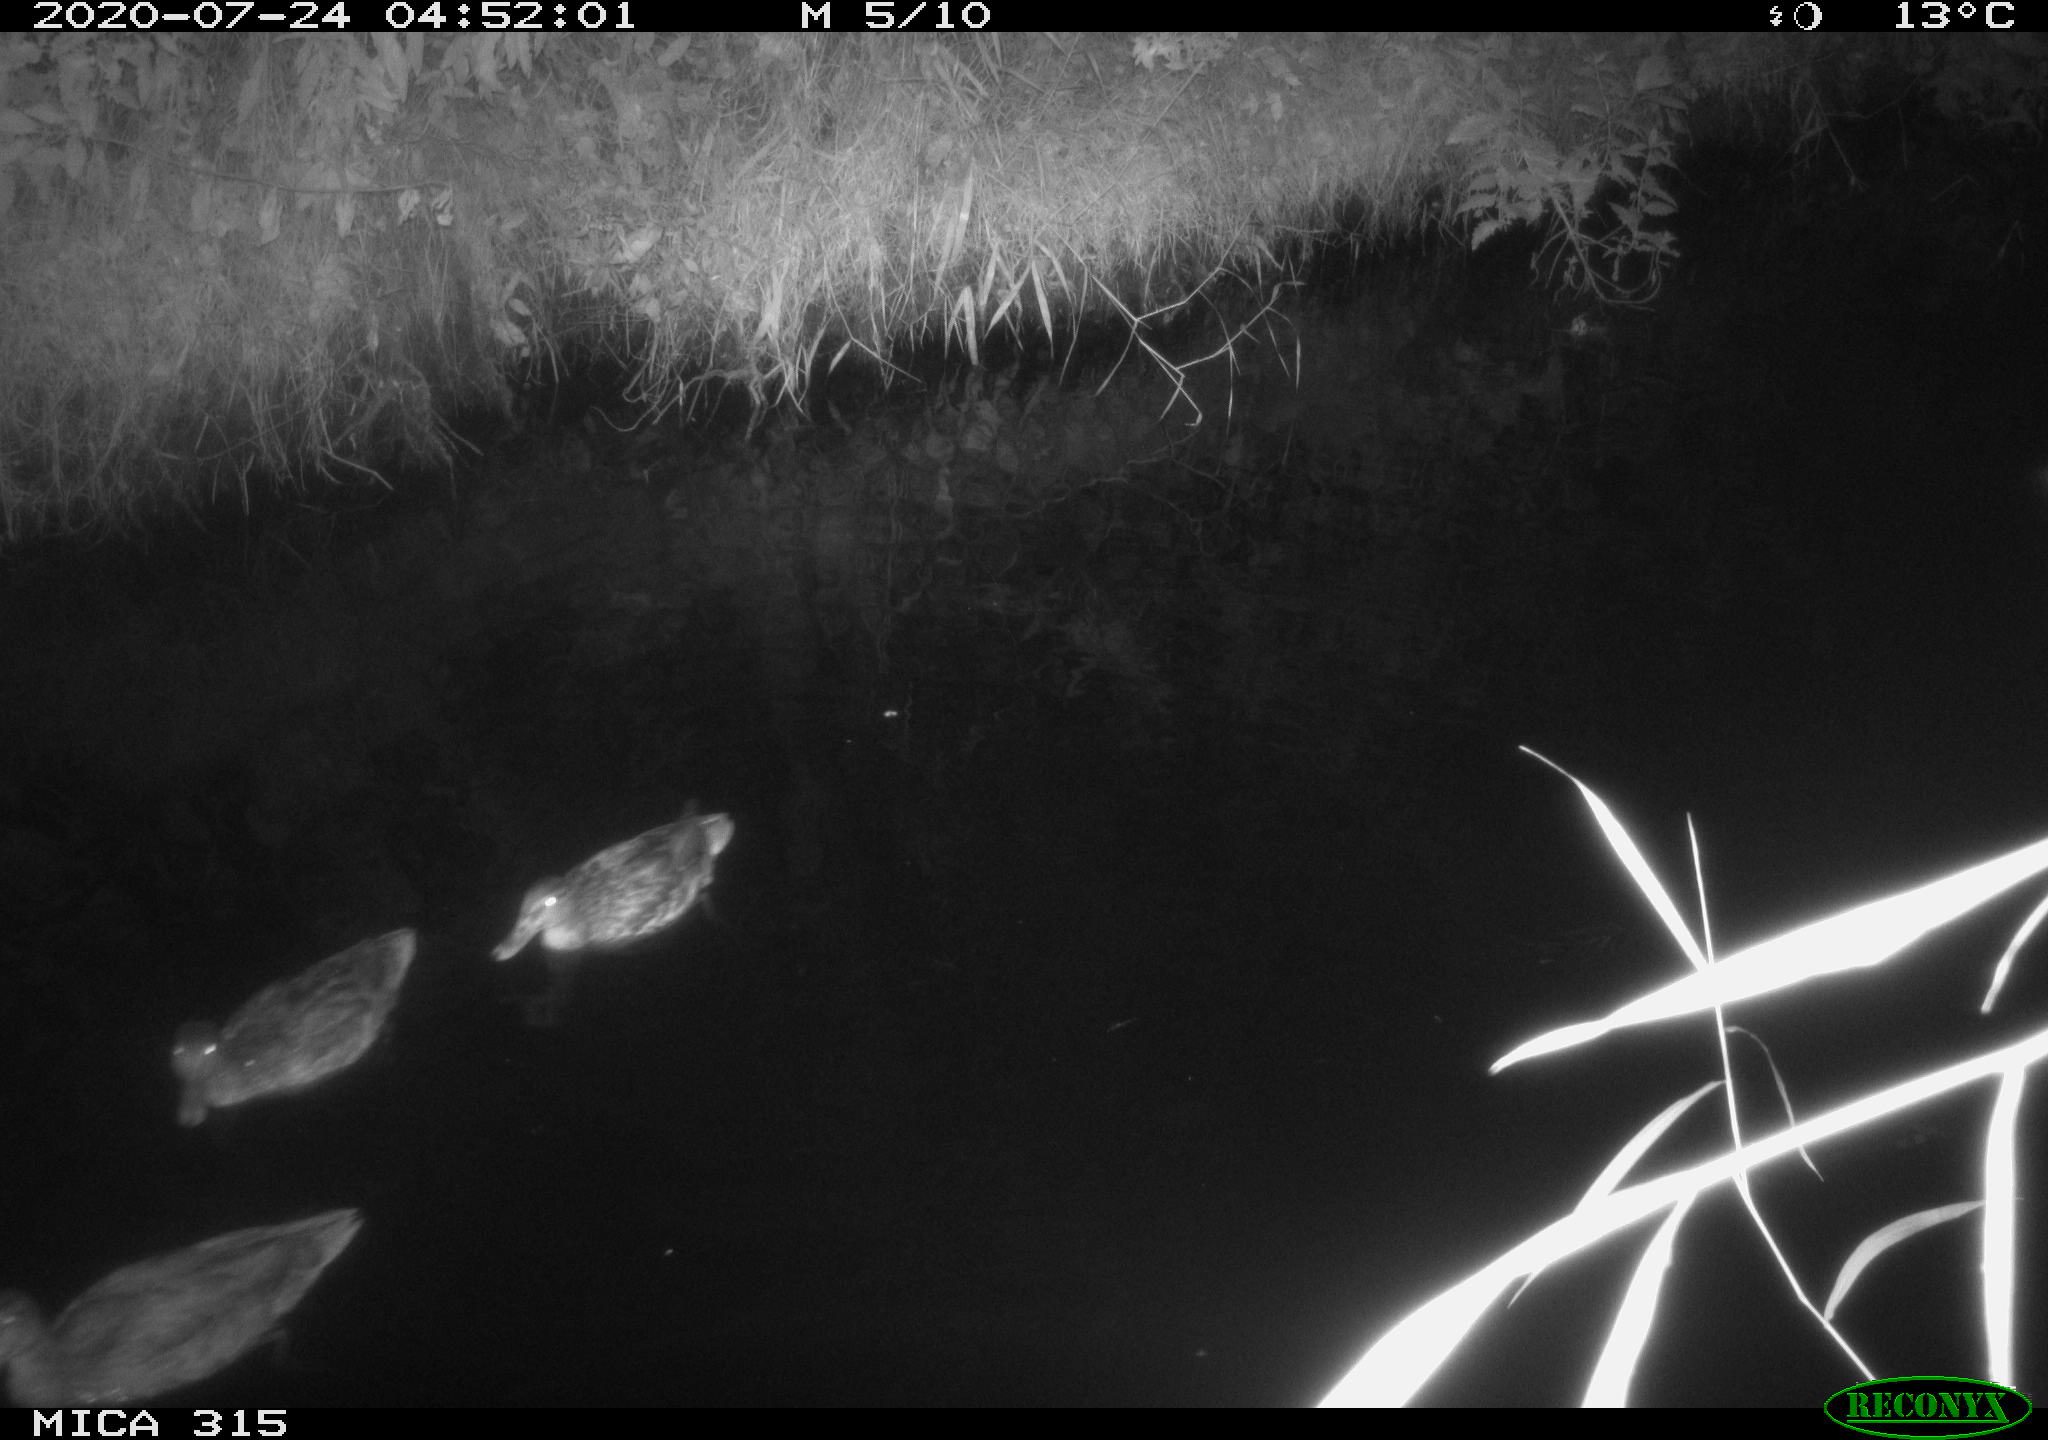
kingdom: Animalia
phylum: Chordata
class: Aves
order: Anseriformes
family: Anatidae
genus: Anas
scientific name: Anas platyrhynchos
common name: Mallard
